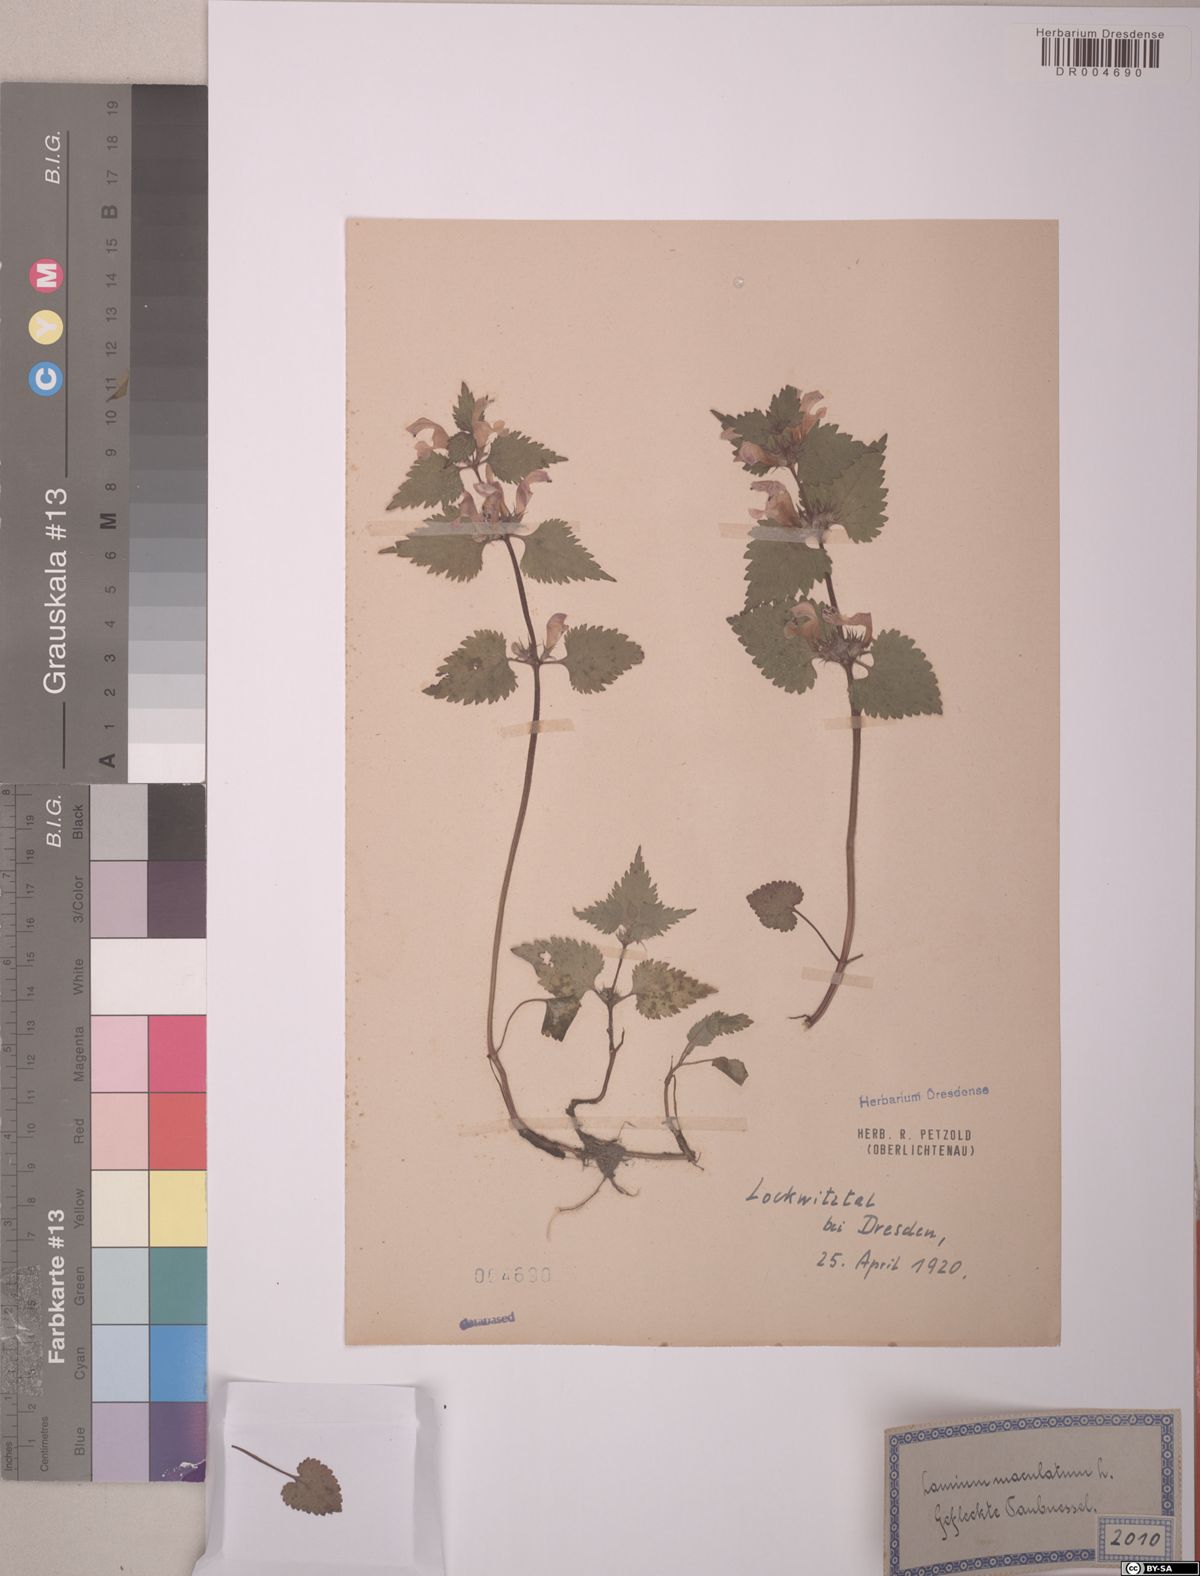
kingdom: Plantae
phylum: Tracheophyta
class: Magnoliopsida
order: Lamiales
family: Lamiaceae
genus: Lamium
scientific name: Lamium maculatum
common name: Spotted dead-nettle
